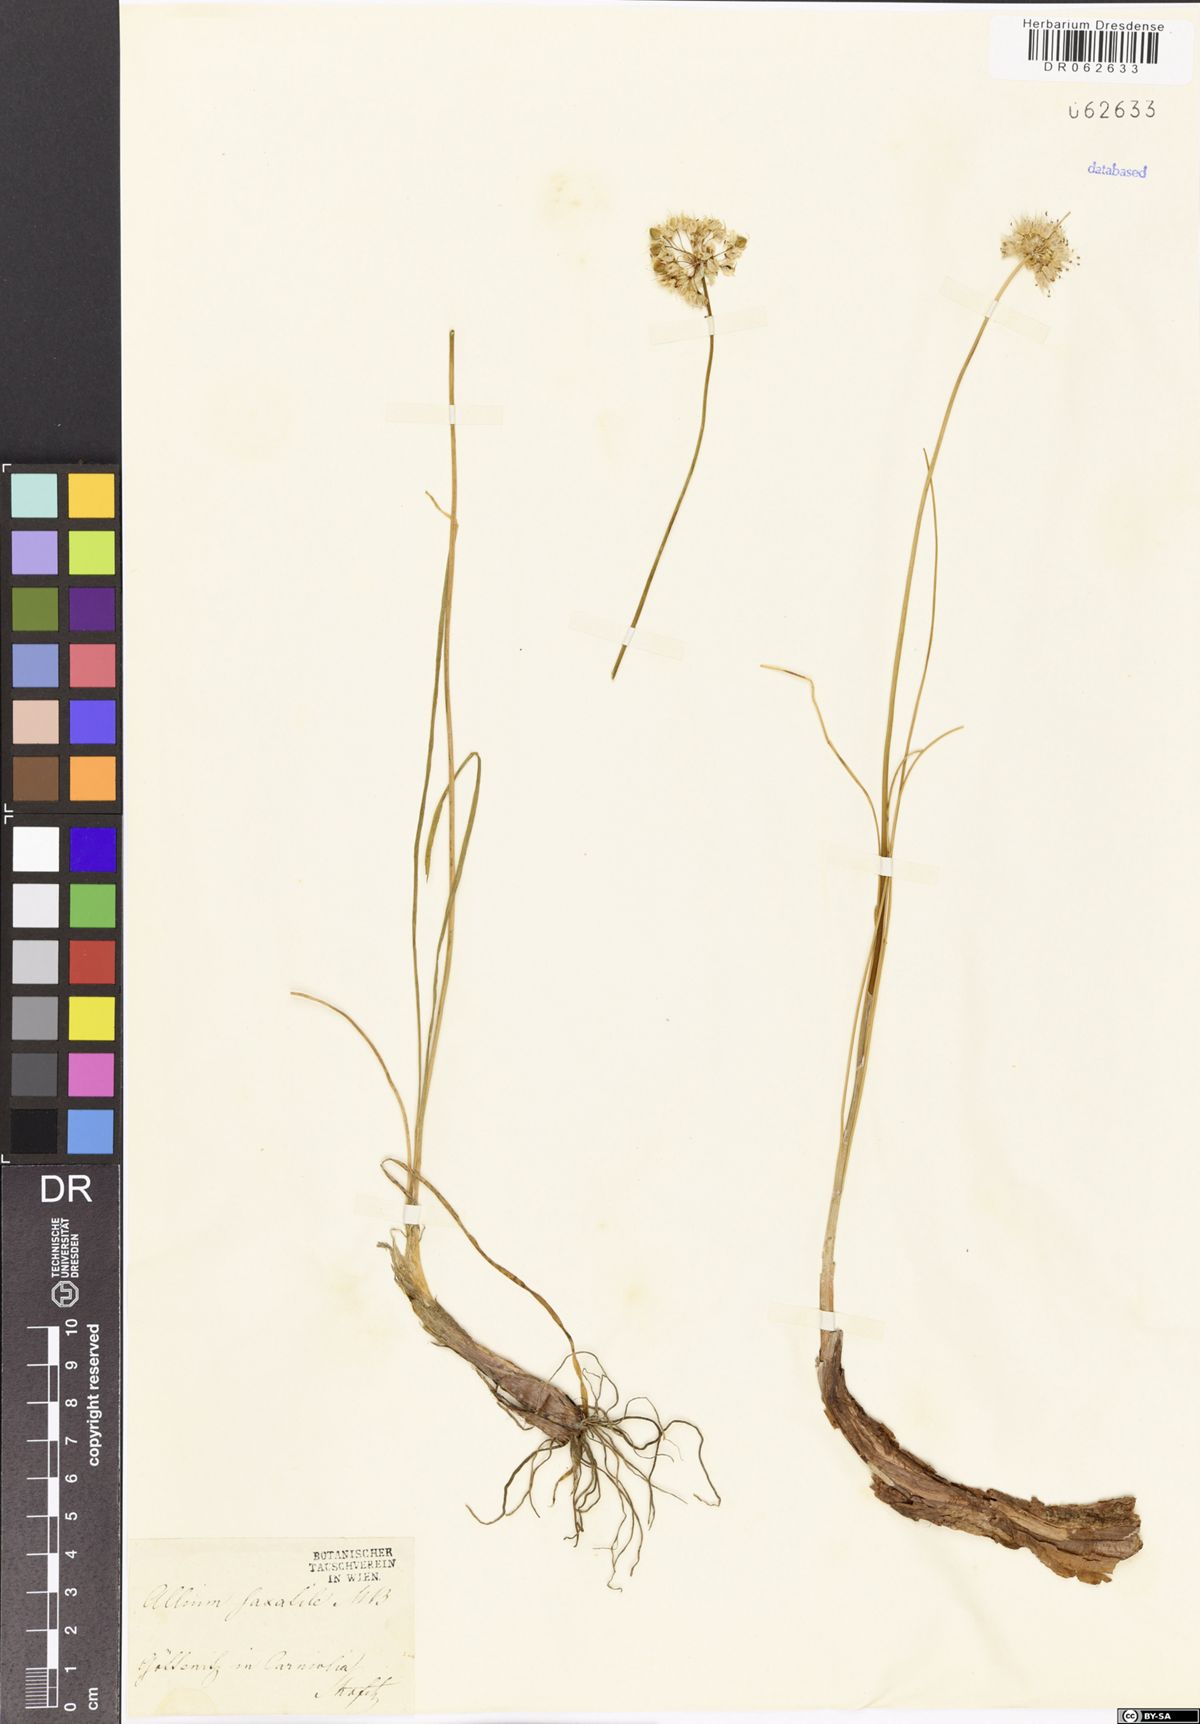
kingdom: Plantae
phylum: Tracheophyta
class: Liliopsida
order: Asparagales
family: Amaryllidaceae
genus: Allium
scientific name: Allium saxatile
